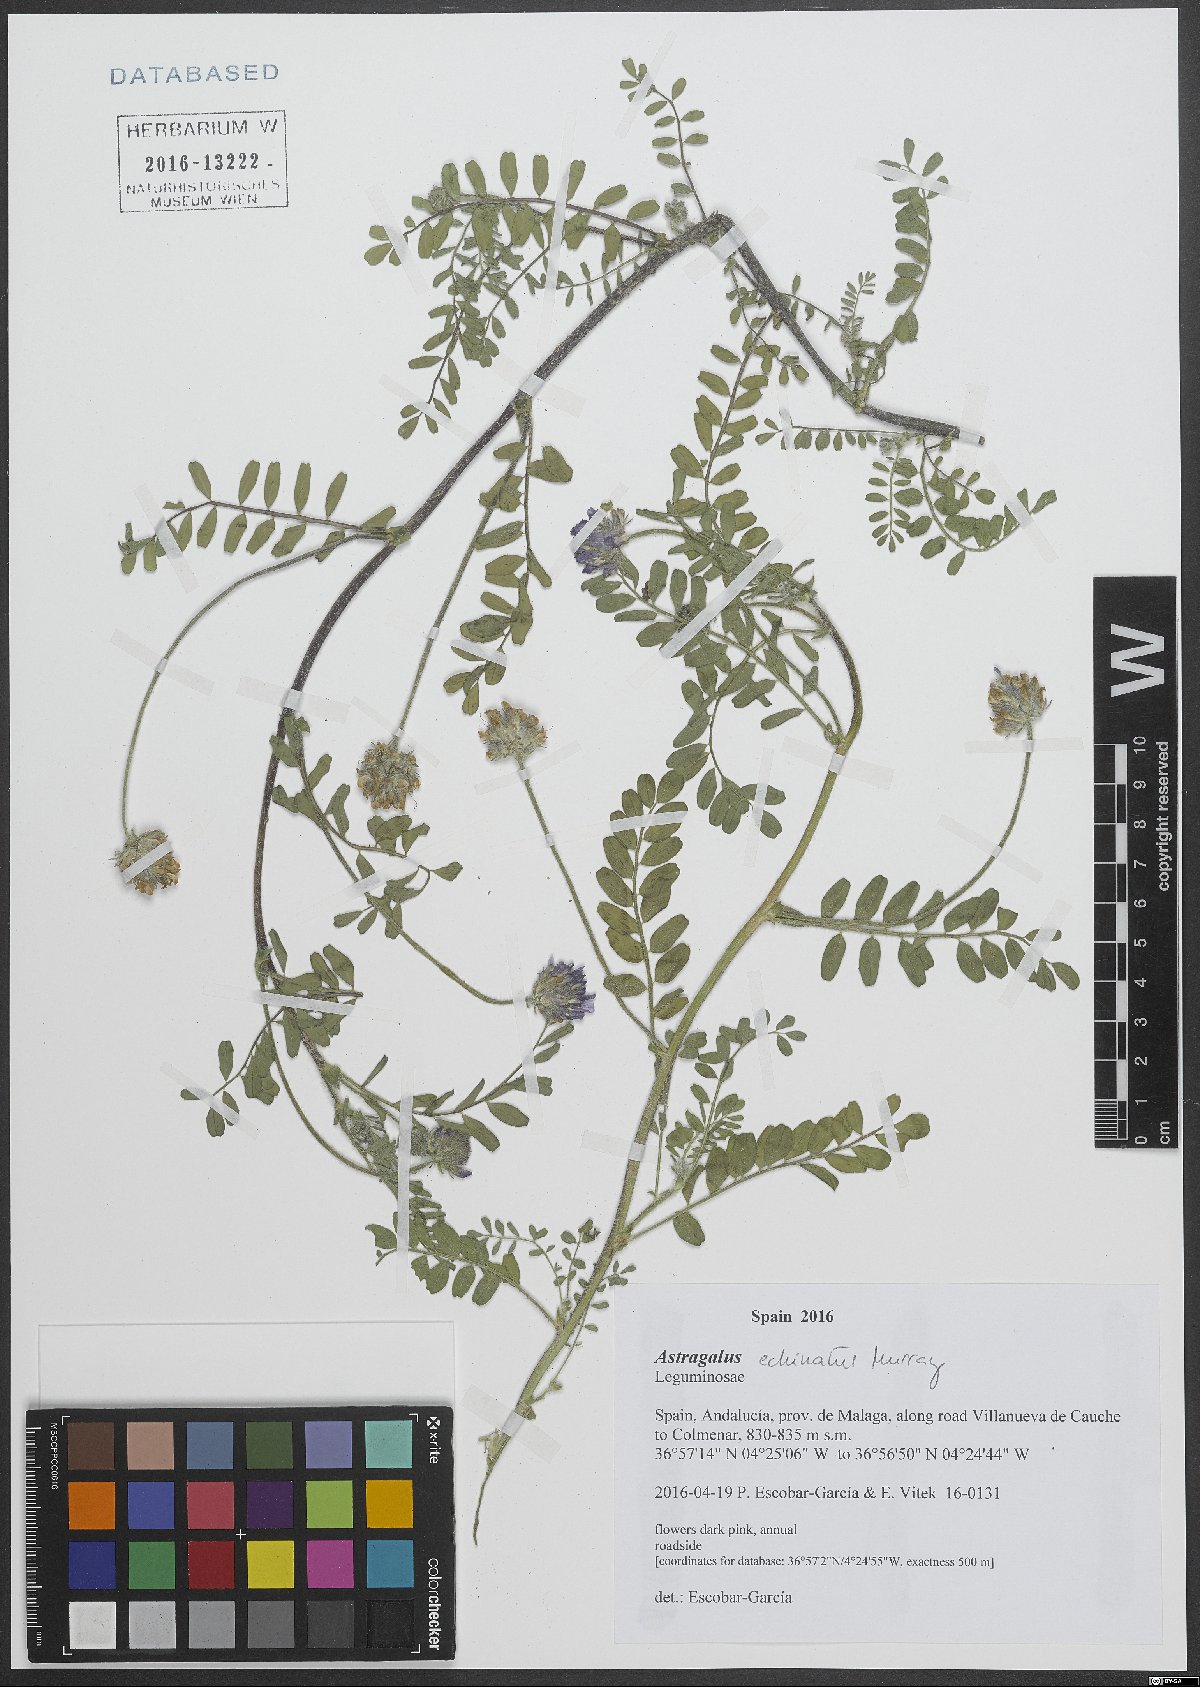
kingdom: Plantae
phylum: Tracheophyta
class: Magnoliopsida
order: Fabales
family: Fabaceae
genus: Astragalus
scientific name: Astragalus echinatus
